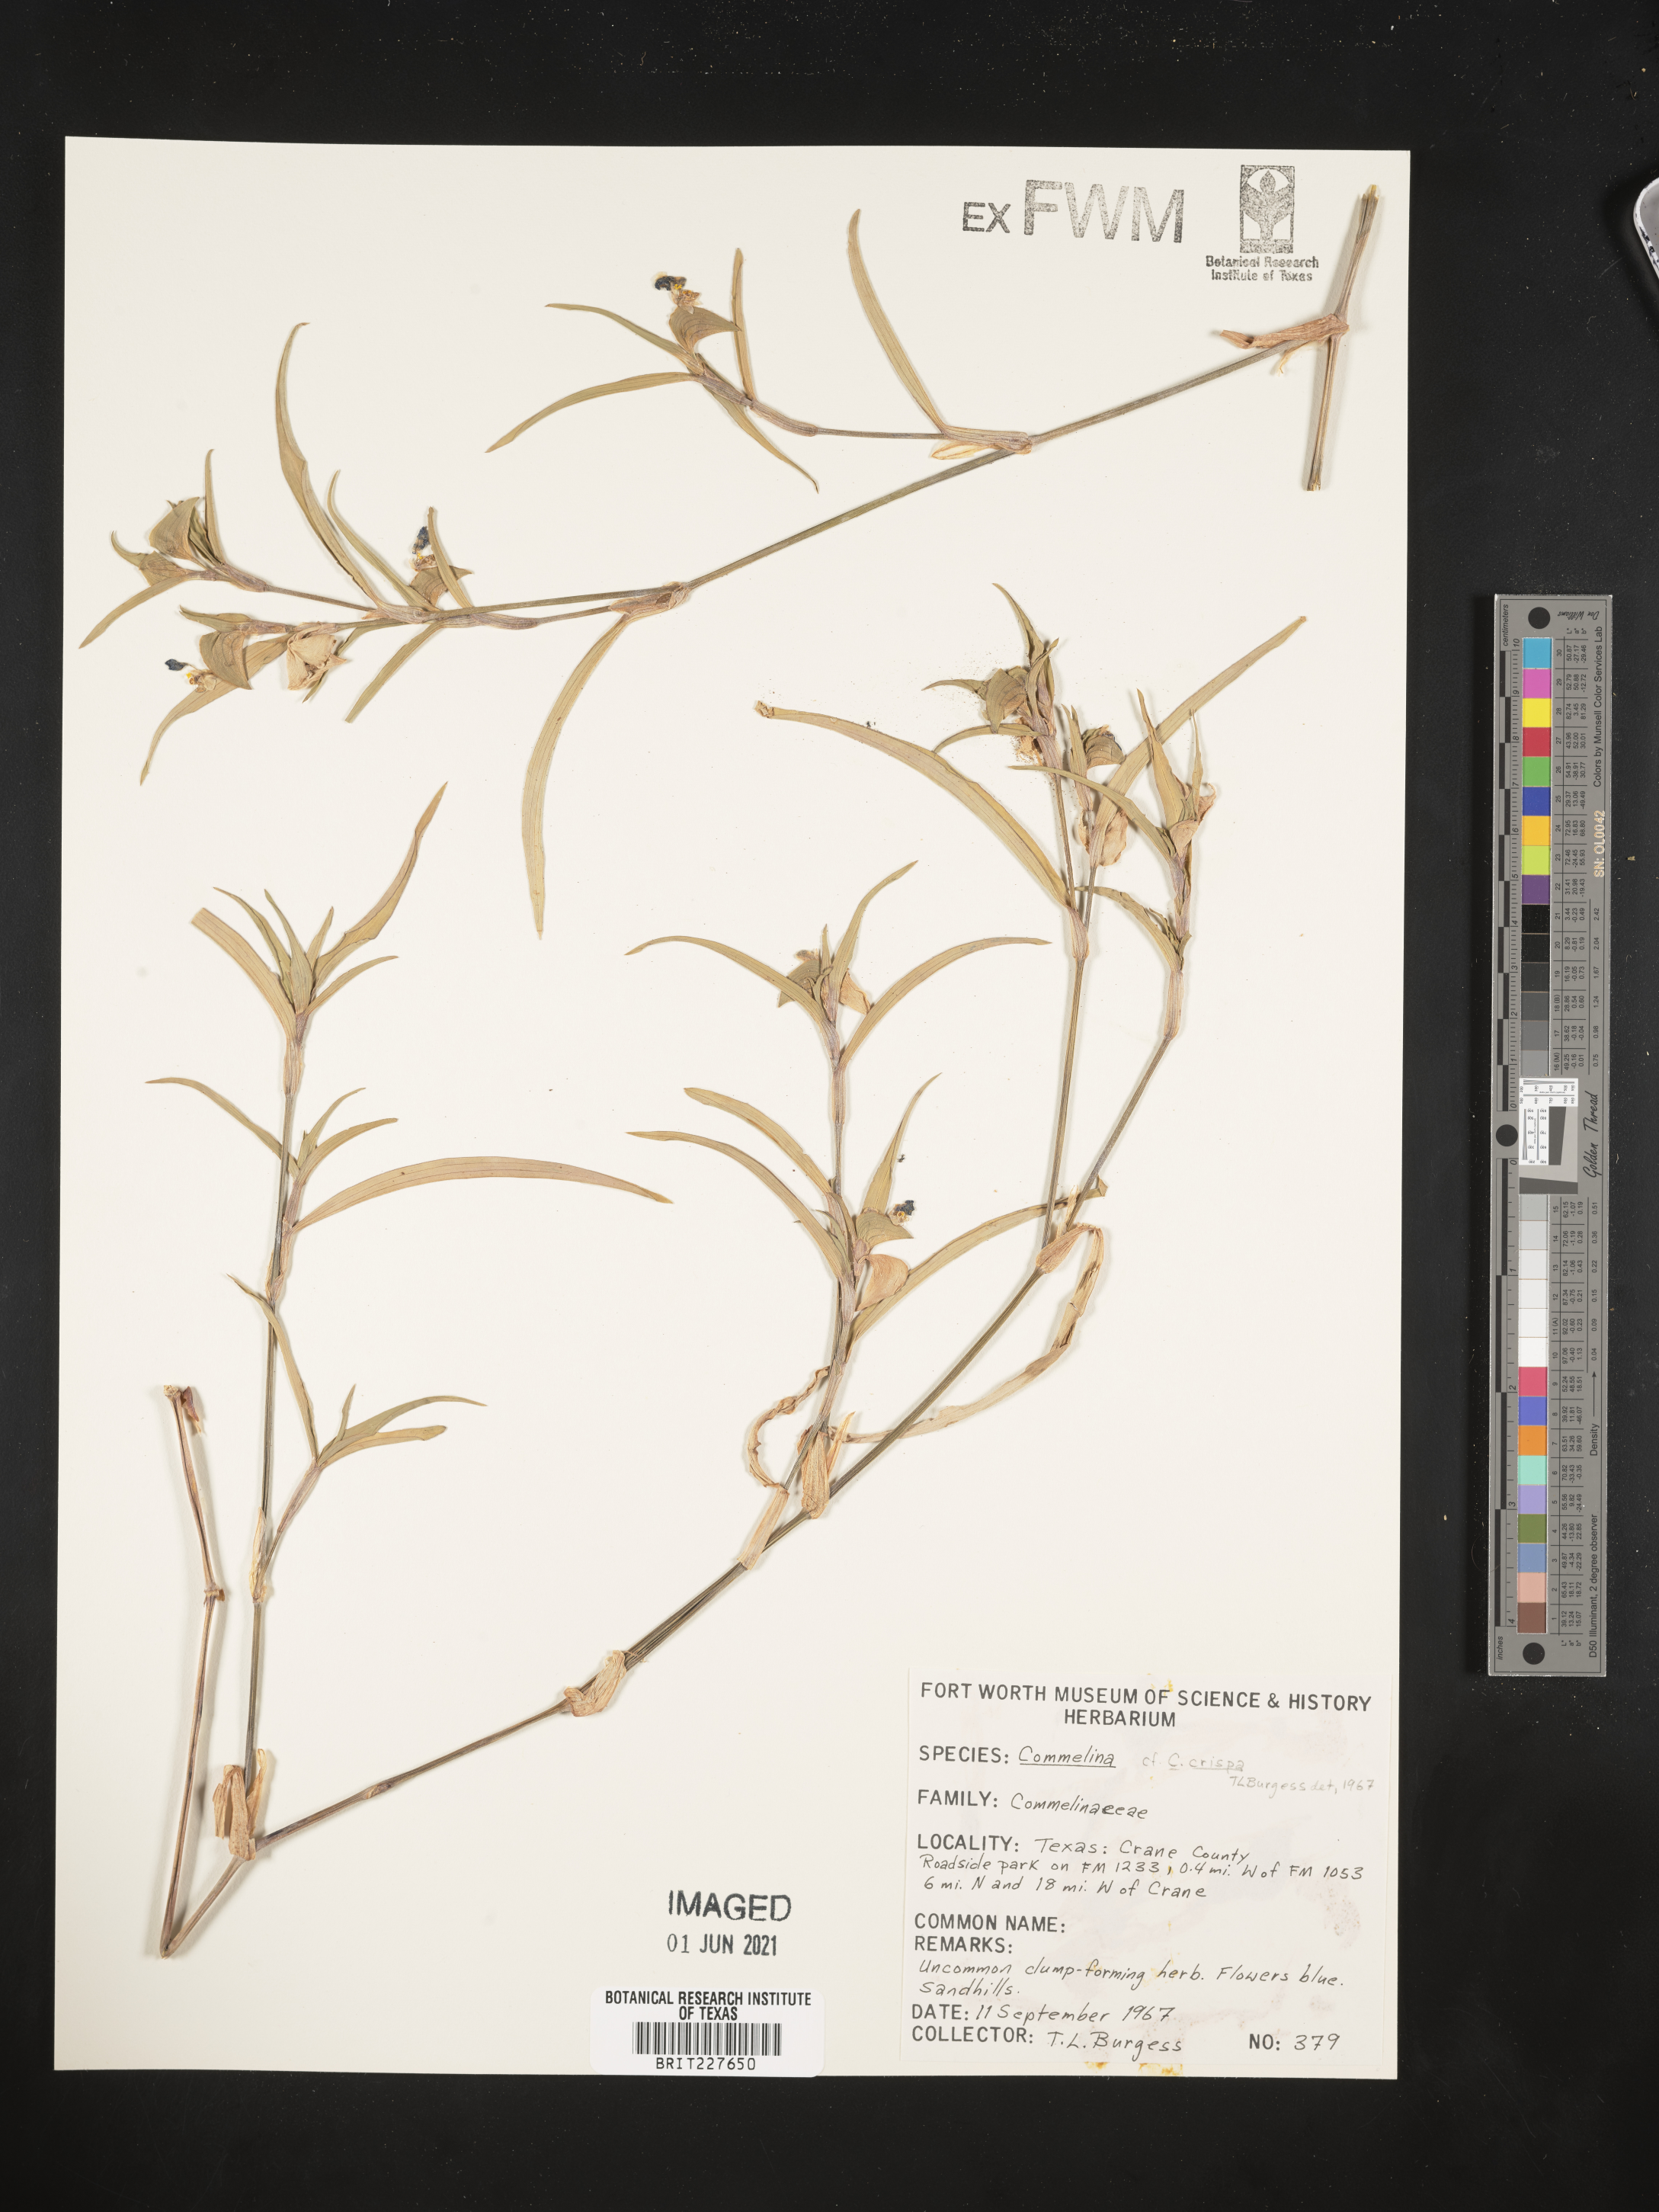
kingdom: Plantae
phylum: Tracheophyta
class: Liliopsida
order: Commelinales
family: Commelinaceae
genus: Commelina
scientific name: Commelina erecta
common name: Blousel blommetjie
